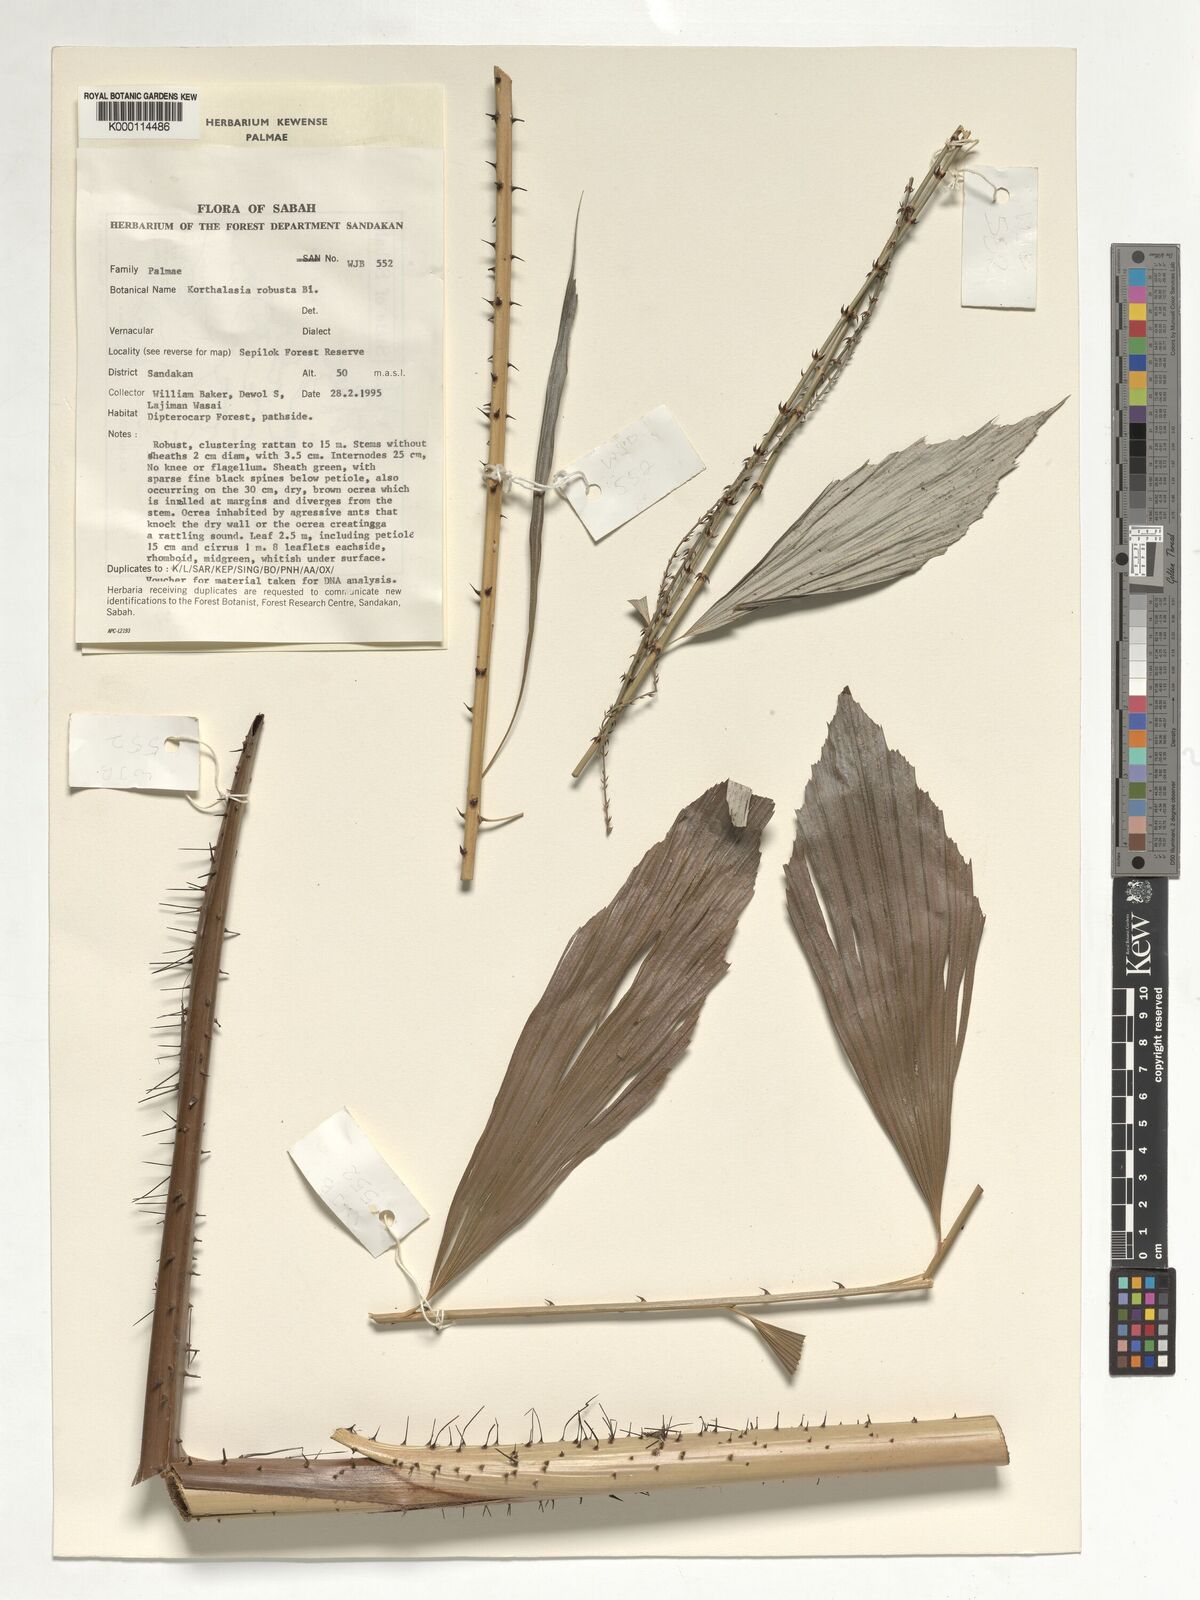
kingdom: Plantae
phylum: Tracheophyta
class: Liliopsida
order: Arecales
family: Arecaceae
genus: Korthalsia
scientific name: Korthalsia robusta
